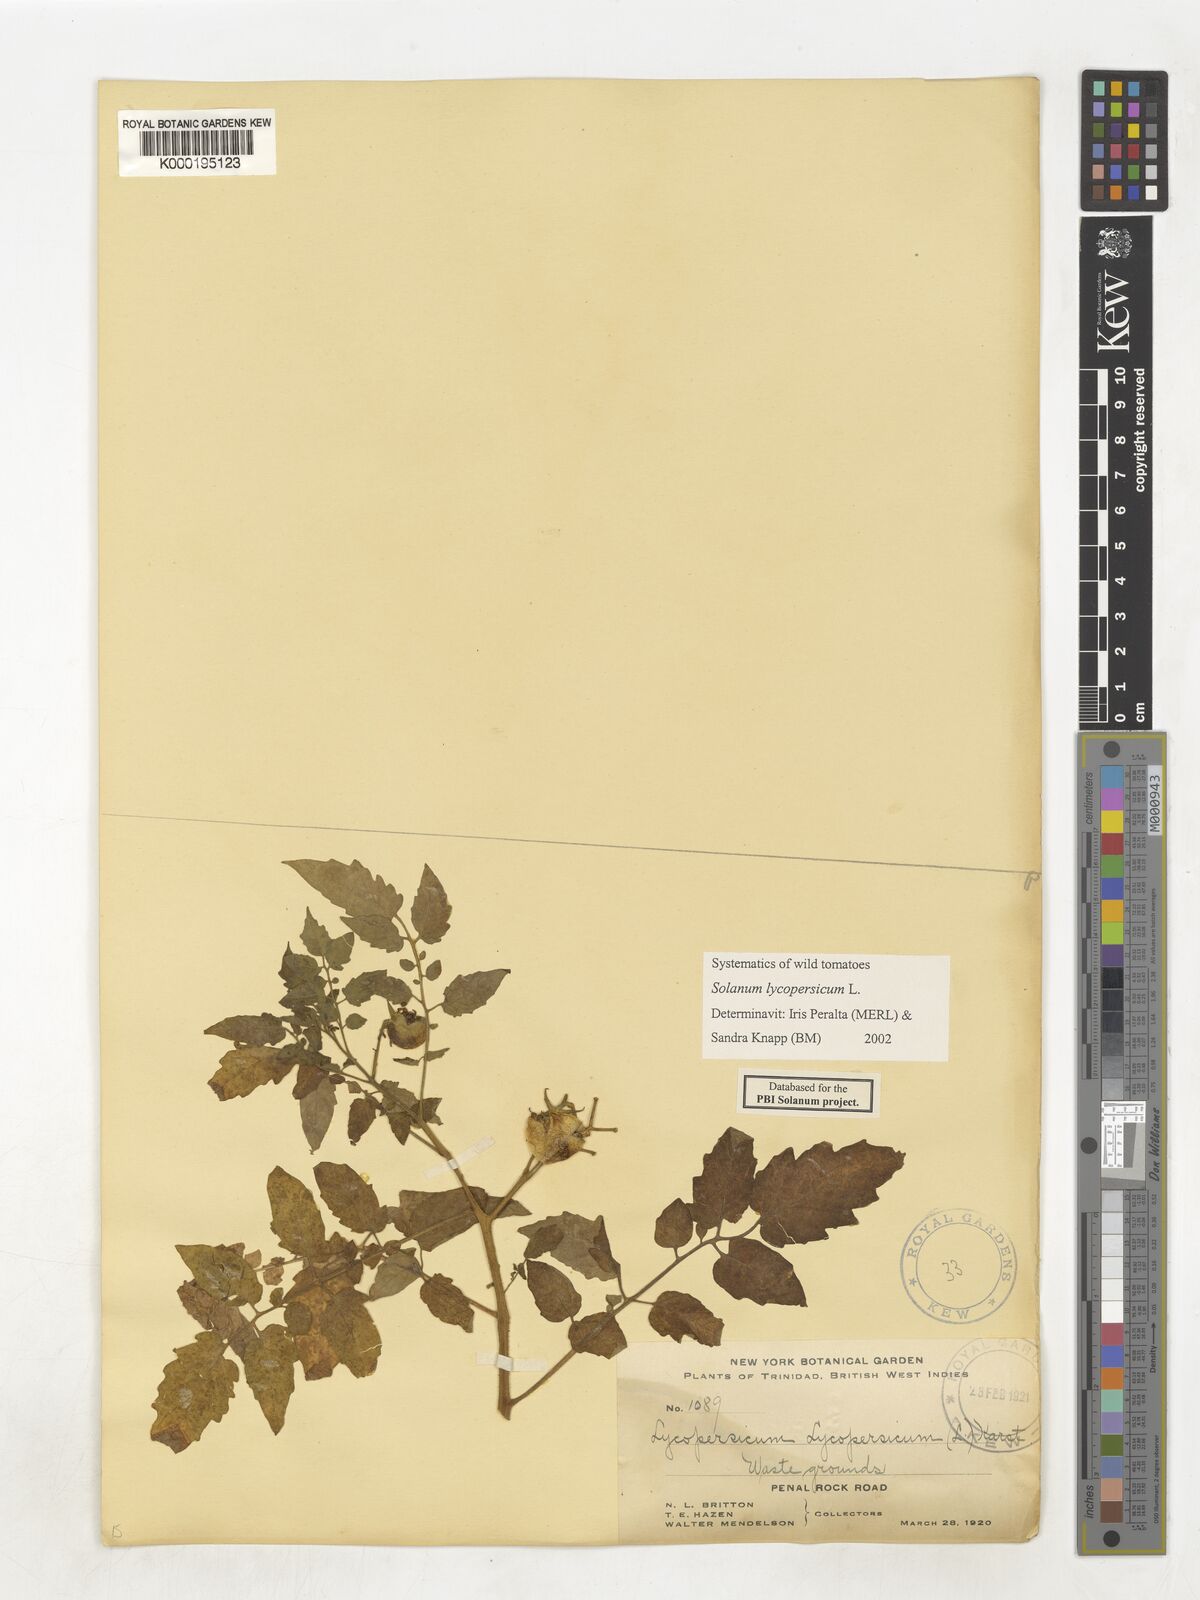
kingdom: Plantae
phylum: Tracheophyta
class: Magnoliopsida
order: Solanales
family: Solanaceae
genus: Solanum
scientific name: Solanum lycopersicum
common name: Garden tomato
